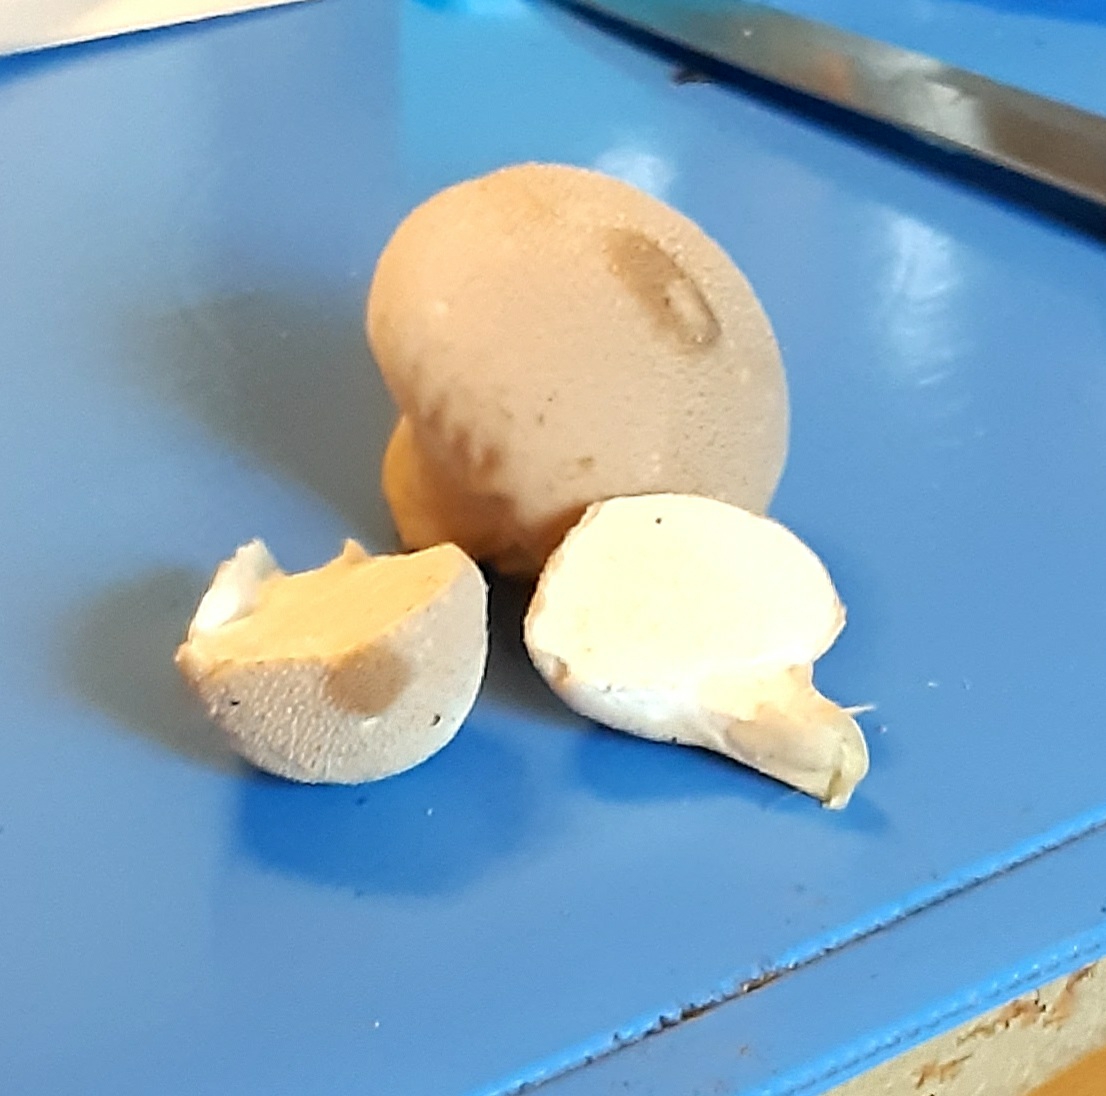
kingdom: Fungi
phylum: Basidiomycota
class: Agaricomycetes
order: Agaricales
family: Agaricaceae
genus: Lycoperdon
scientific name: Lycoperdon
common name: støvbold
